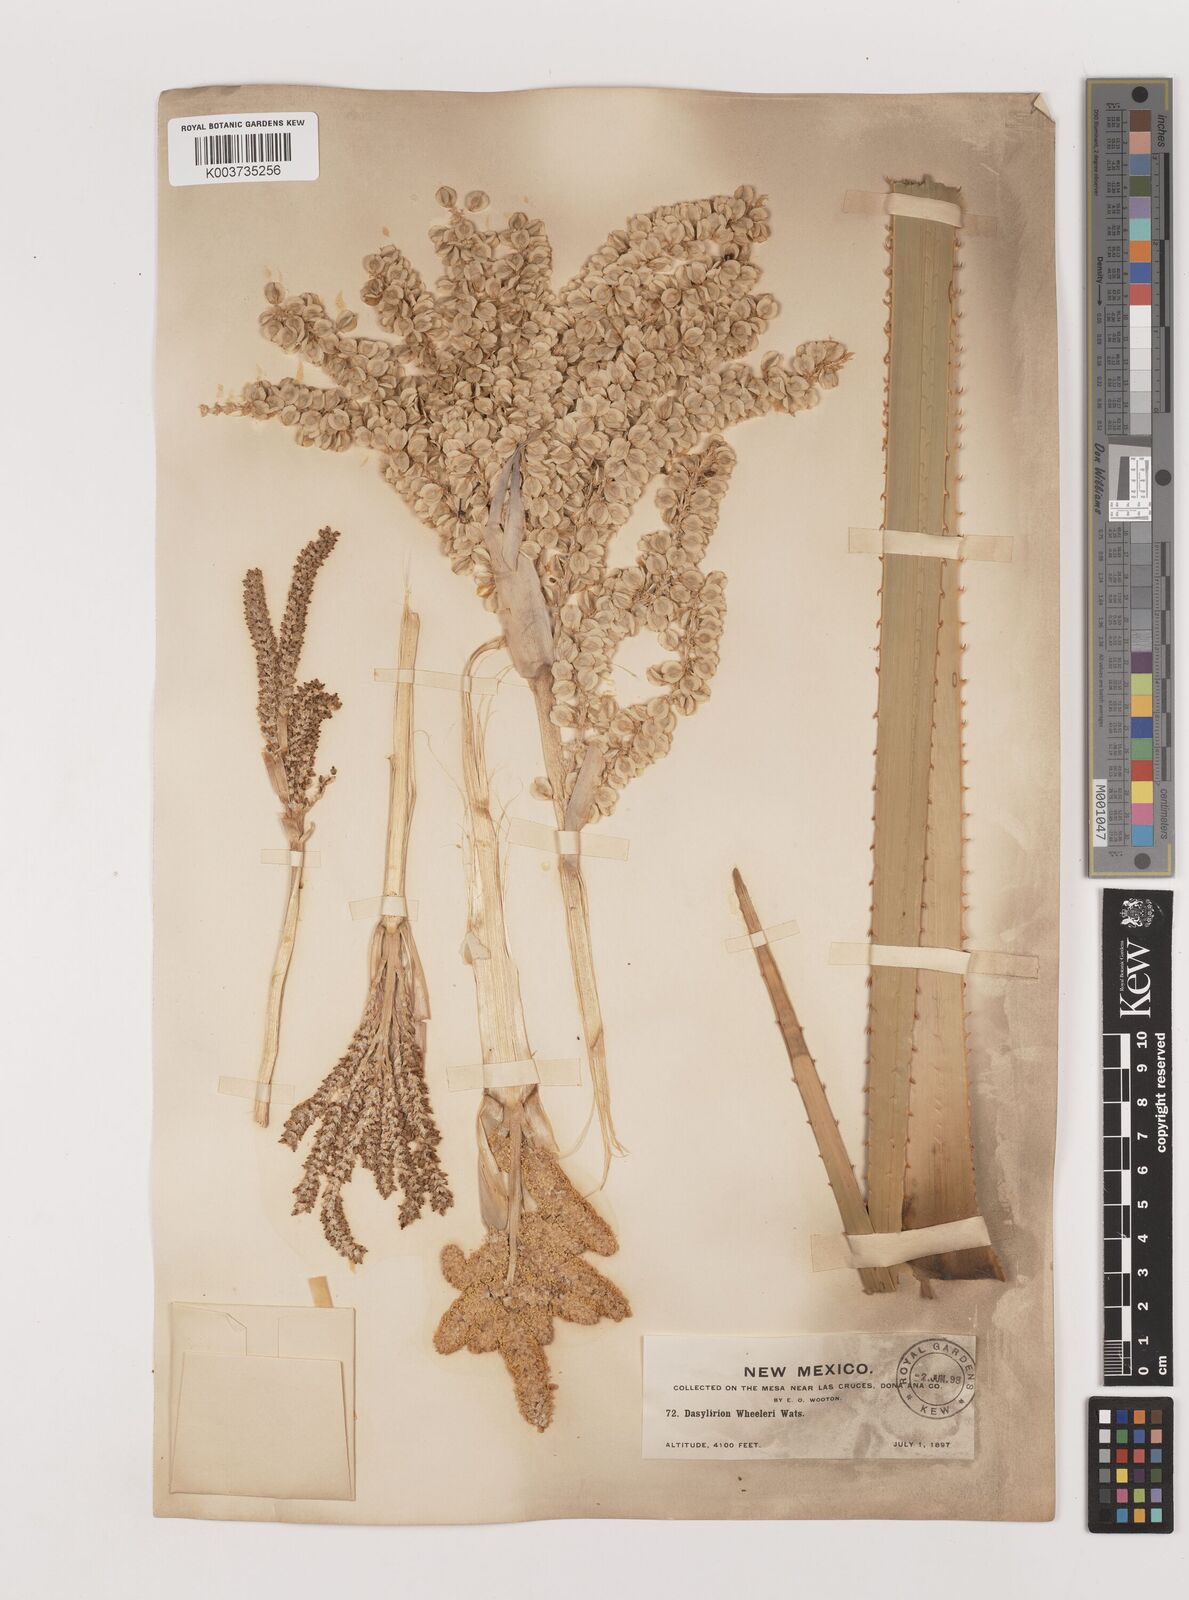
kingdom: Plantae
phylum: Tracheophyta
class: Liliopsida
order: Asparagales
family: Asparagaceae
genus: Dasylirion
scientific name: Dasylirion wheeleri
